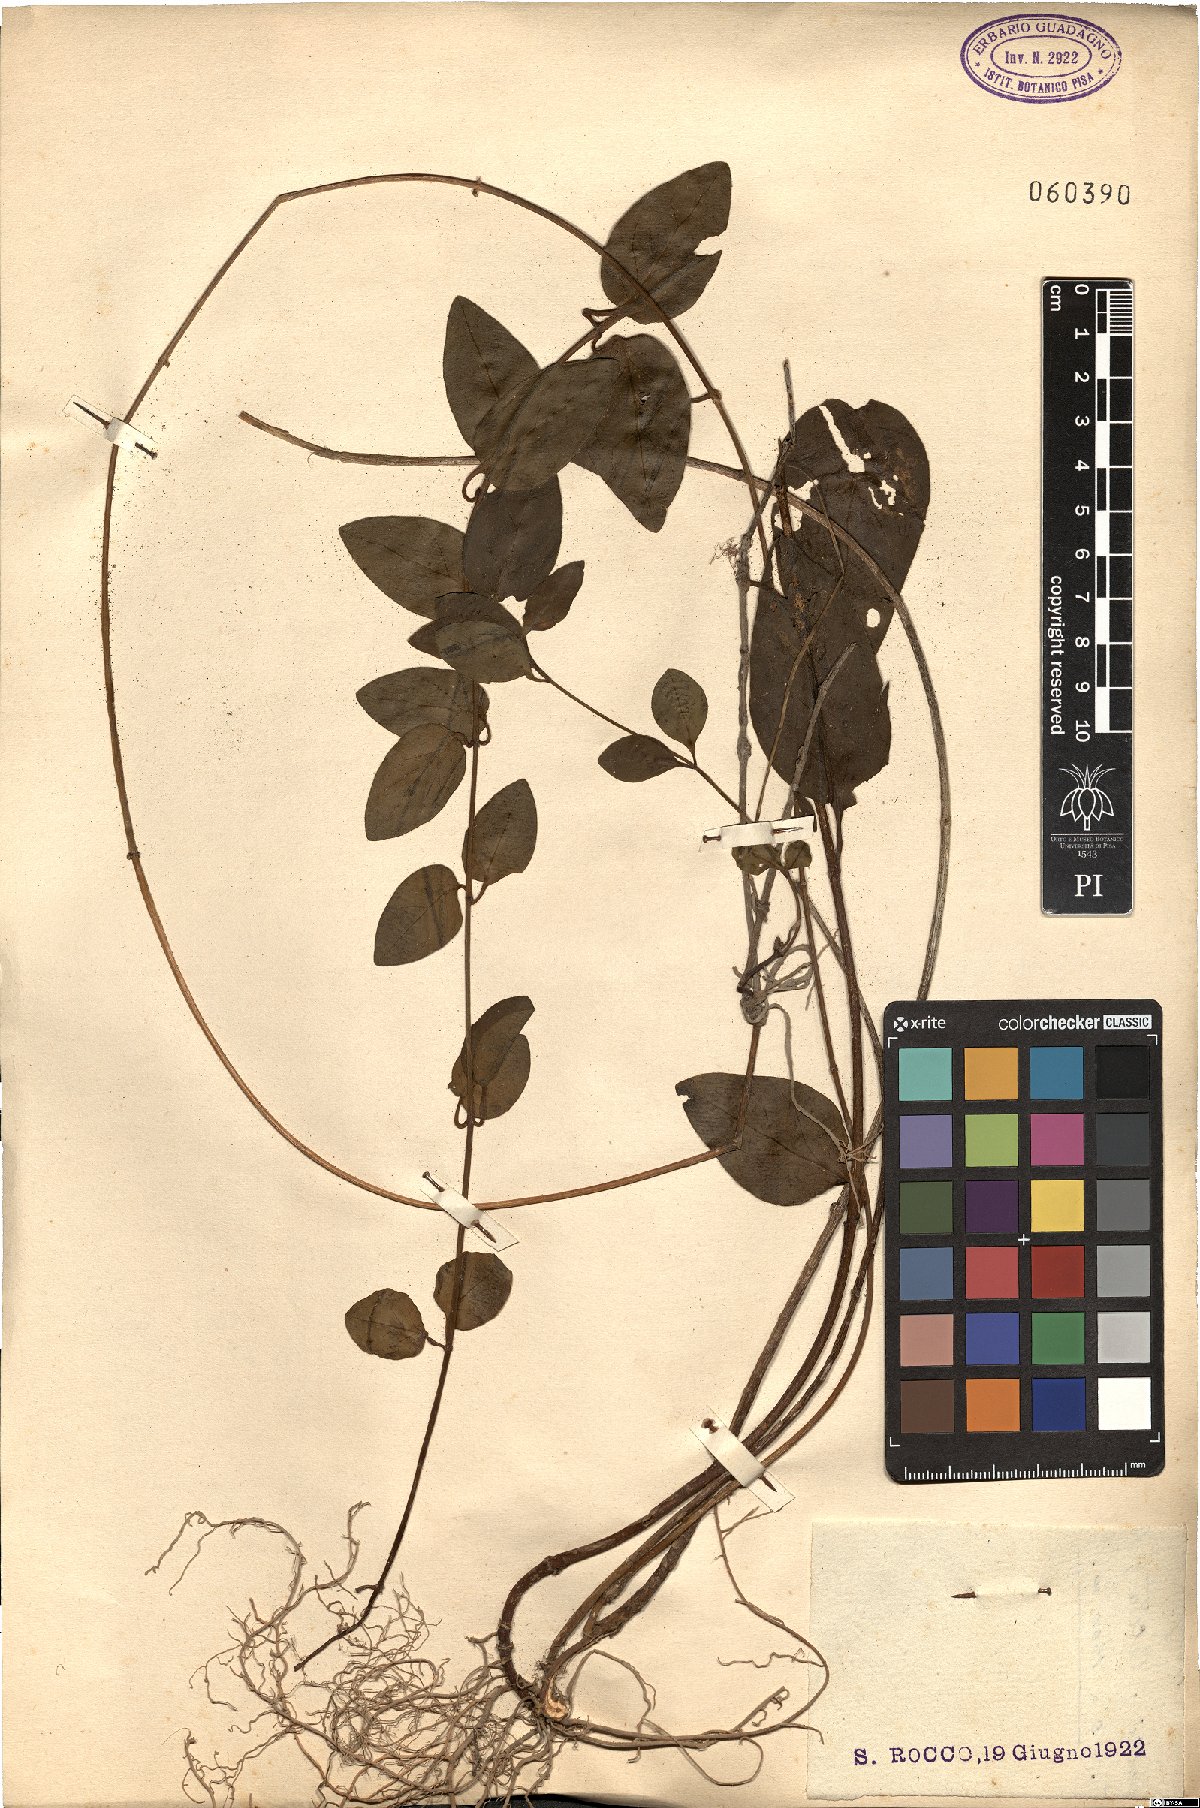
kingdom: Plantae
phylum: Tracheophyta
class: Magnoliopsida
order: Gentianales
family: Apocynaceae
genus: Vinca
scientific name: Vinca major
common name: Greater periwinkle
